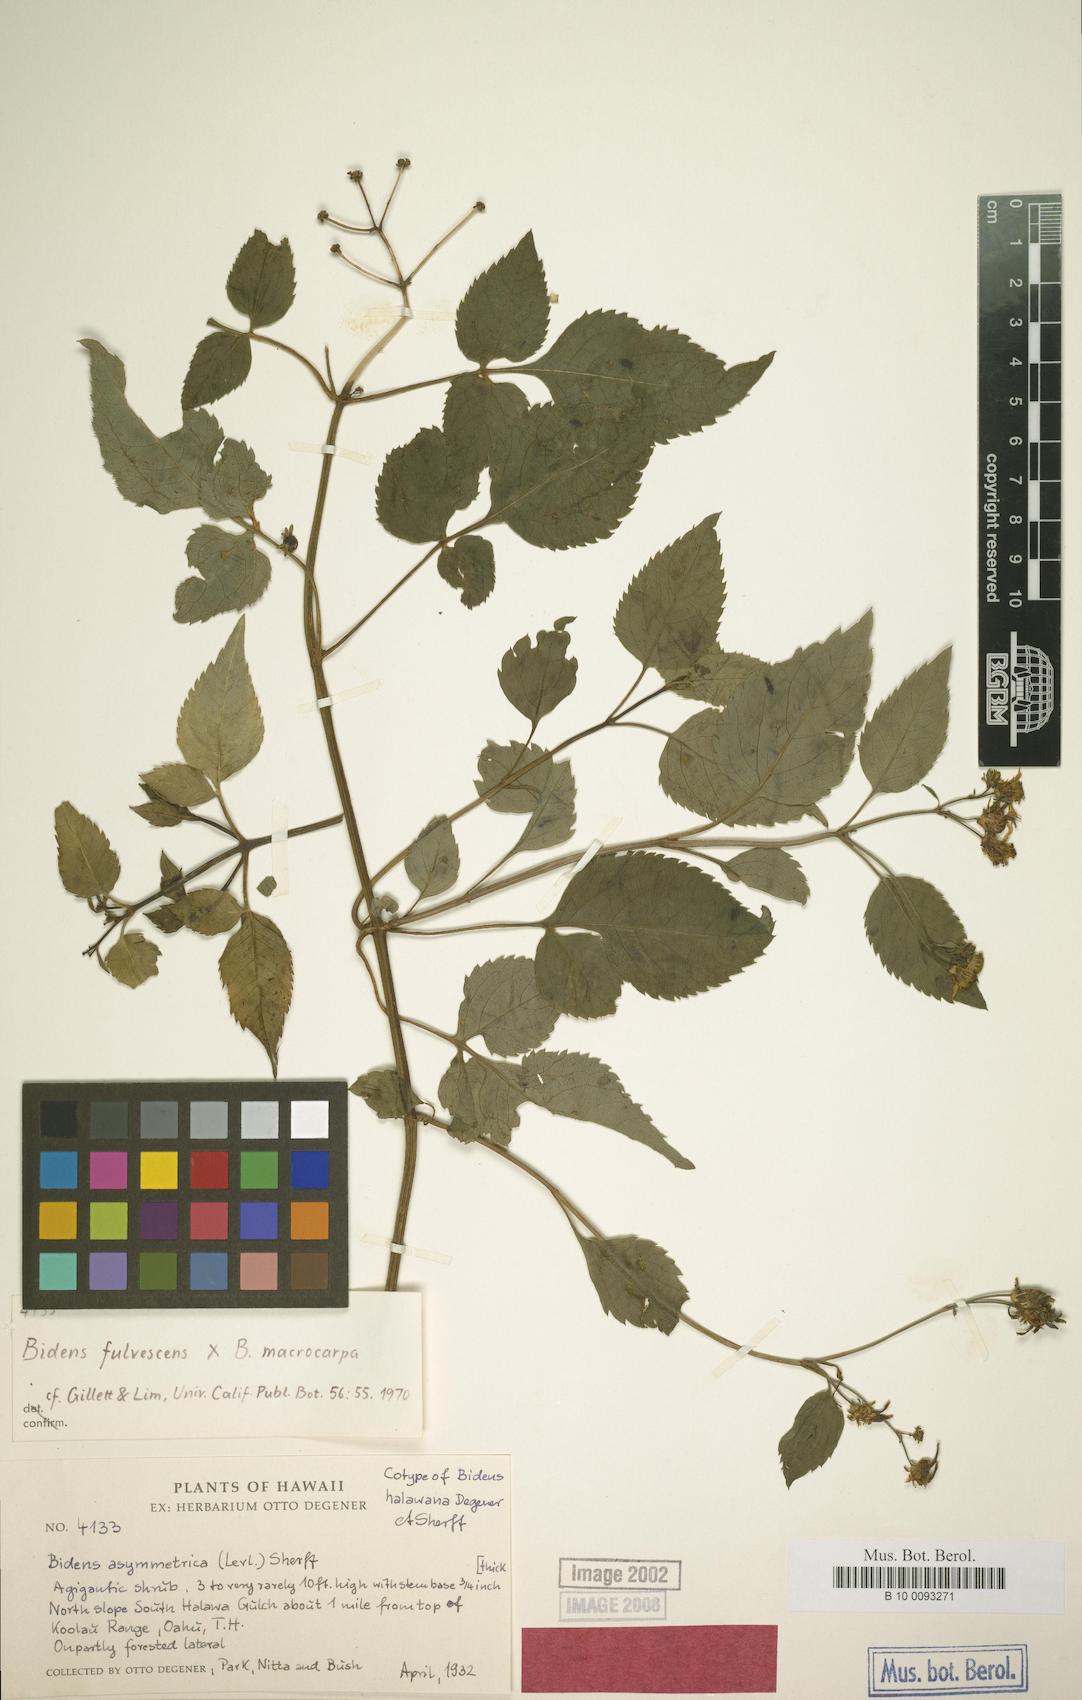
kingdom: Plantae
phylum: Tracheophyta
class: Magnoliopsida
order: Asterales
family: Asteraceae
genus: Bidens
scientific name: Bidens asymmetrica
